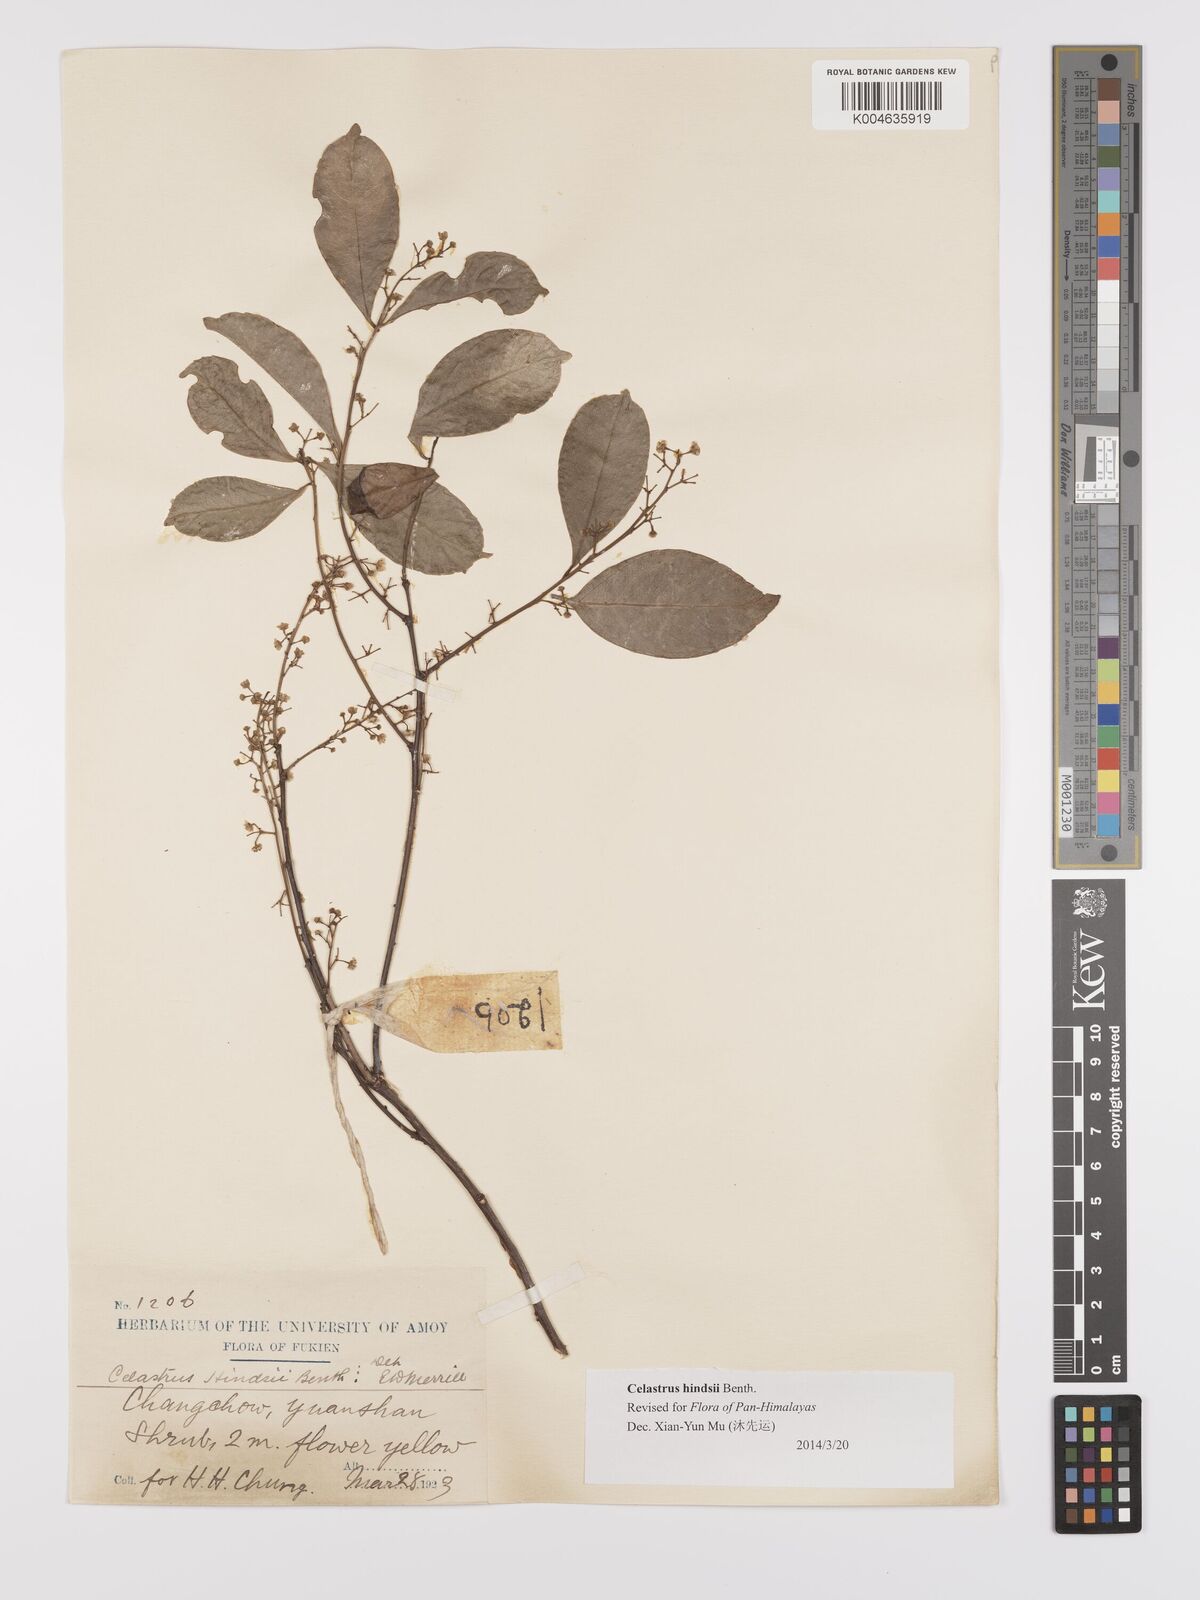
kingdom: Plantae
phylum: Tracheophyta
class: Magnoliopsida
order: Celastrales
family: Celastraceae
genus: Celastrus
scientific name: Celastrus hindsii
